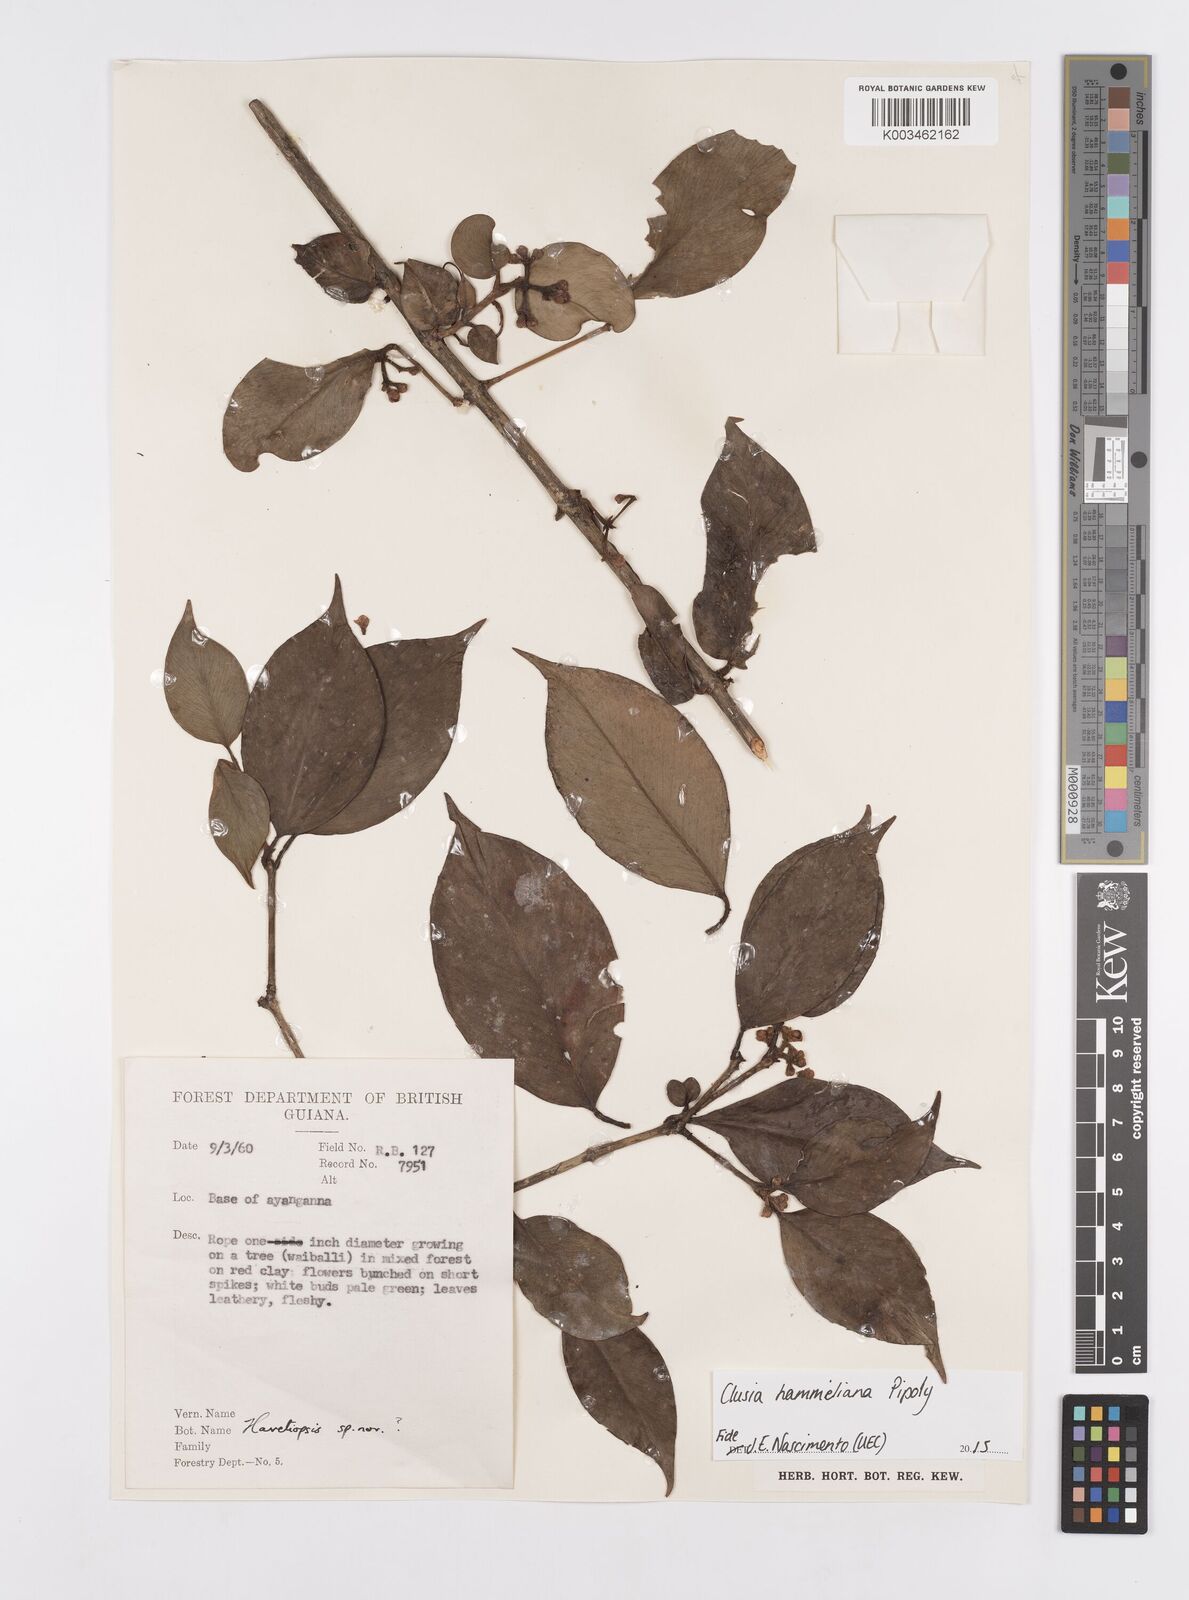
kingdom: Plantae
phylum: Tracheophyta
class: Magnoliopsida
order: Malpighiales
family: Clusiaceae
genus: Clusia
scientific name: Clusia hammeliana
